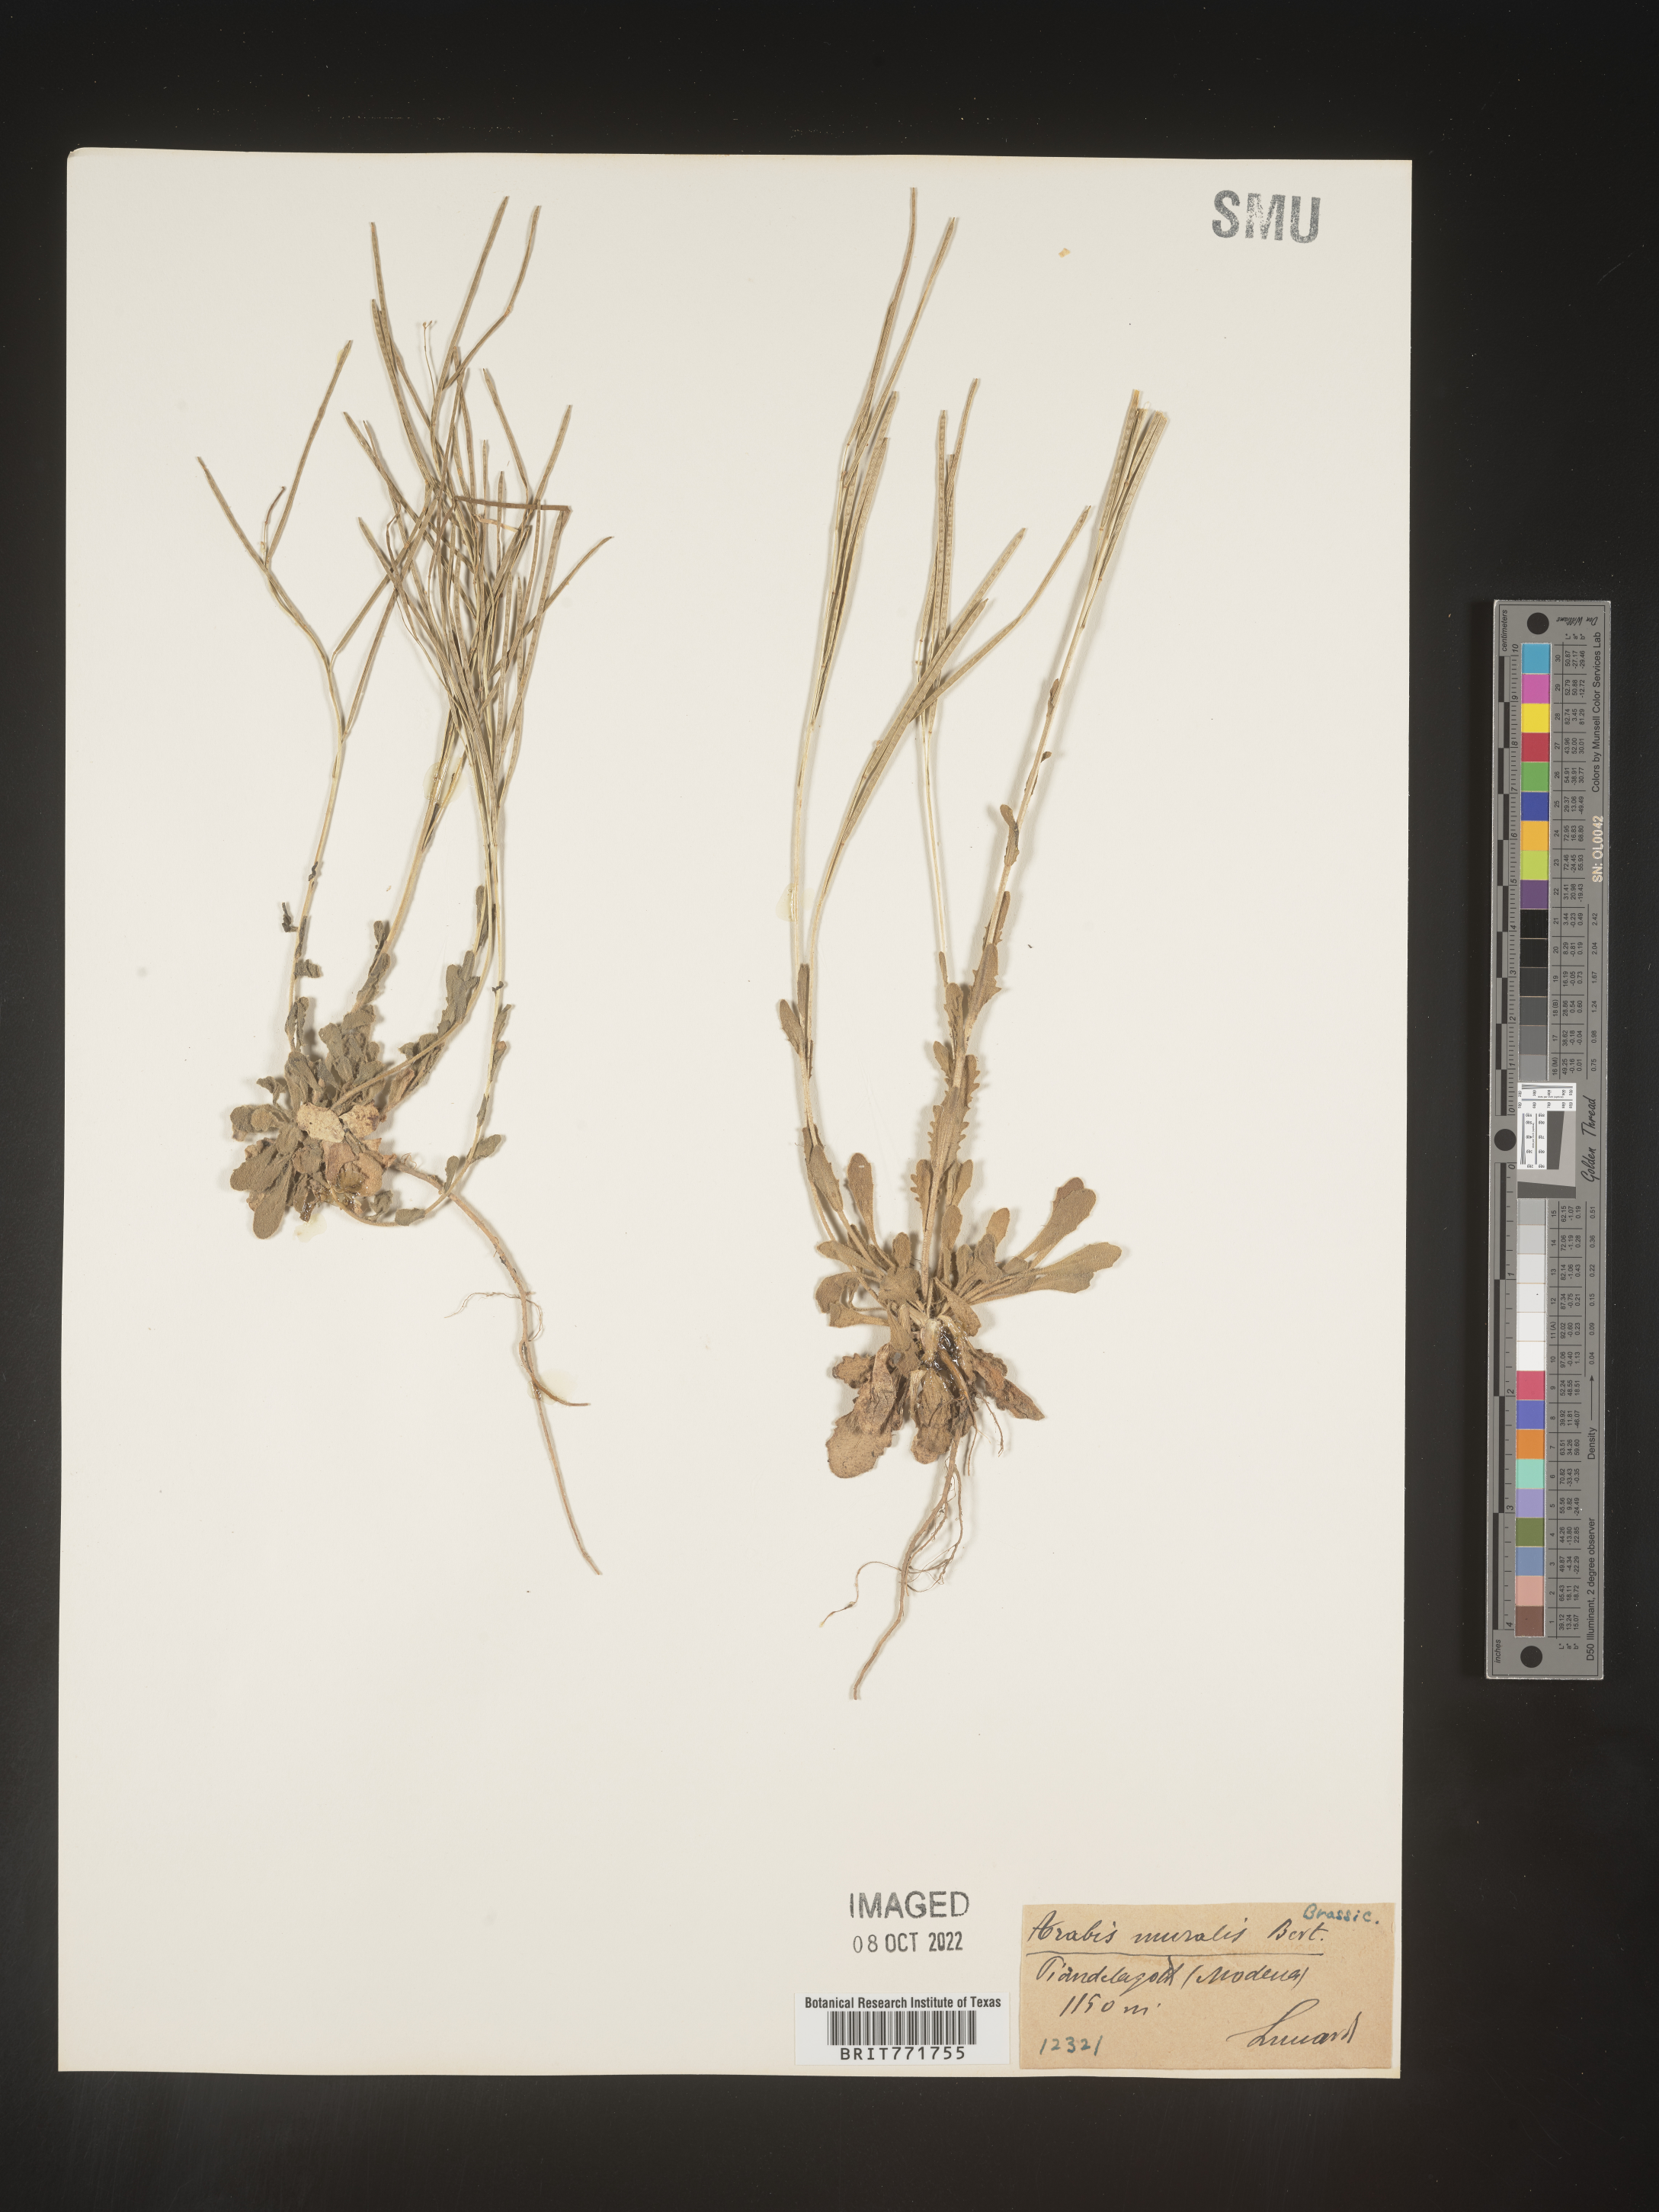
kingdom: Plantae
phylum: Tracheophyta
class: Magnoliopsida
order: Brassicales
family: Brassicaceae
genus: Arabis
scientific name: Arabis
